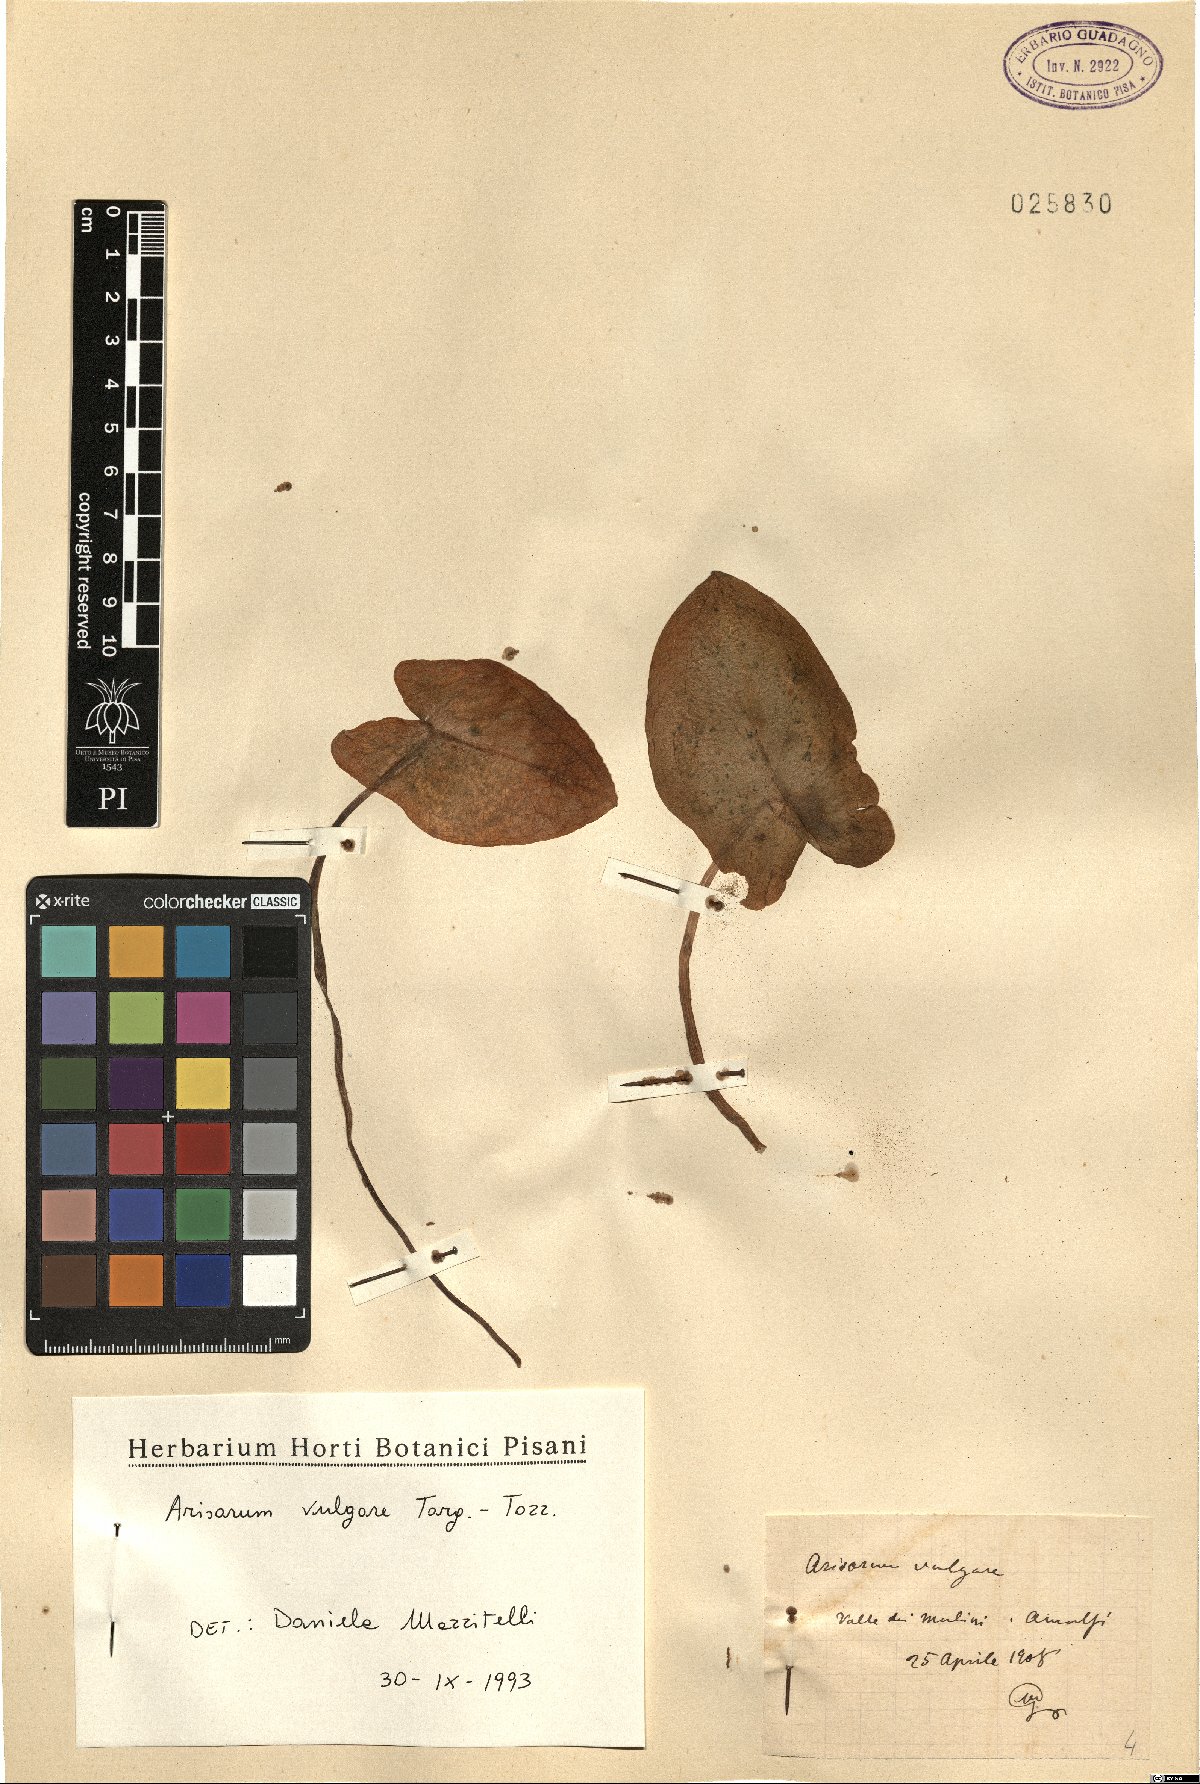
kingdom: Plantae
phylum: Tracheophyta
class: Liliopsida
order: Alismatales
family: Araceae
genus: Arisarum
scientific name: Arisarum vulgare
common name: Common arisarum
